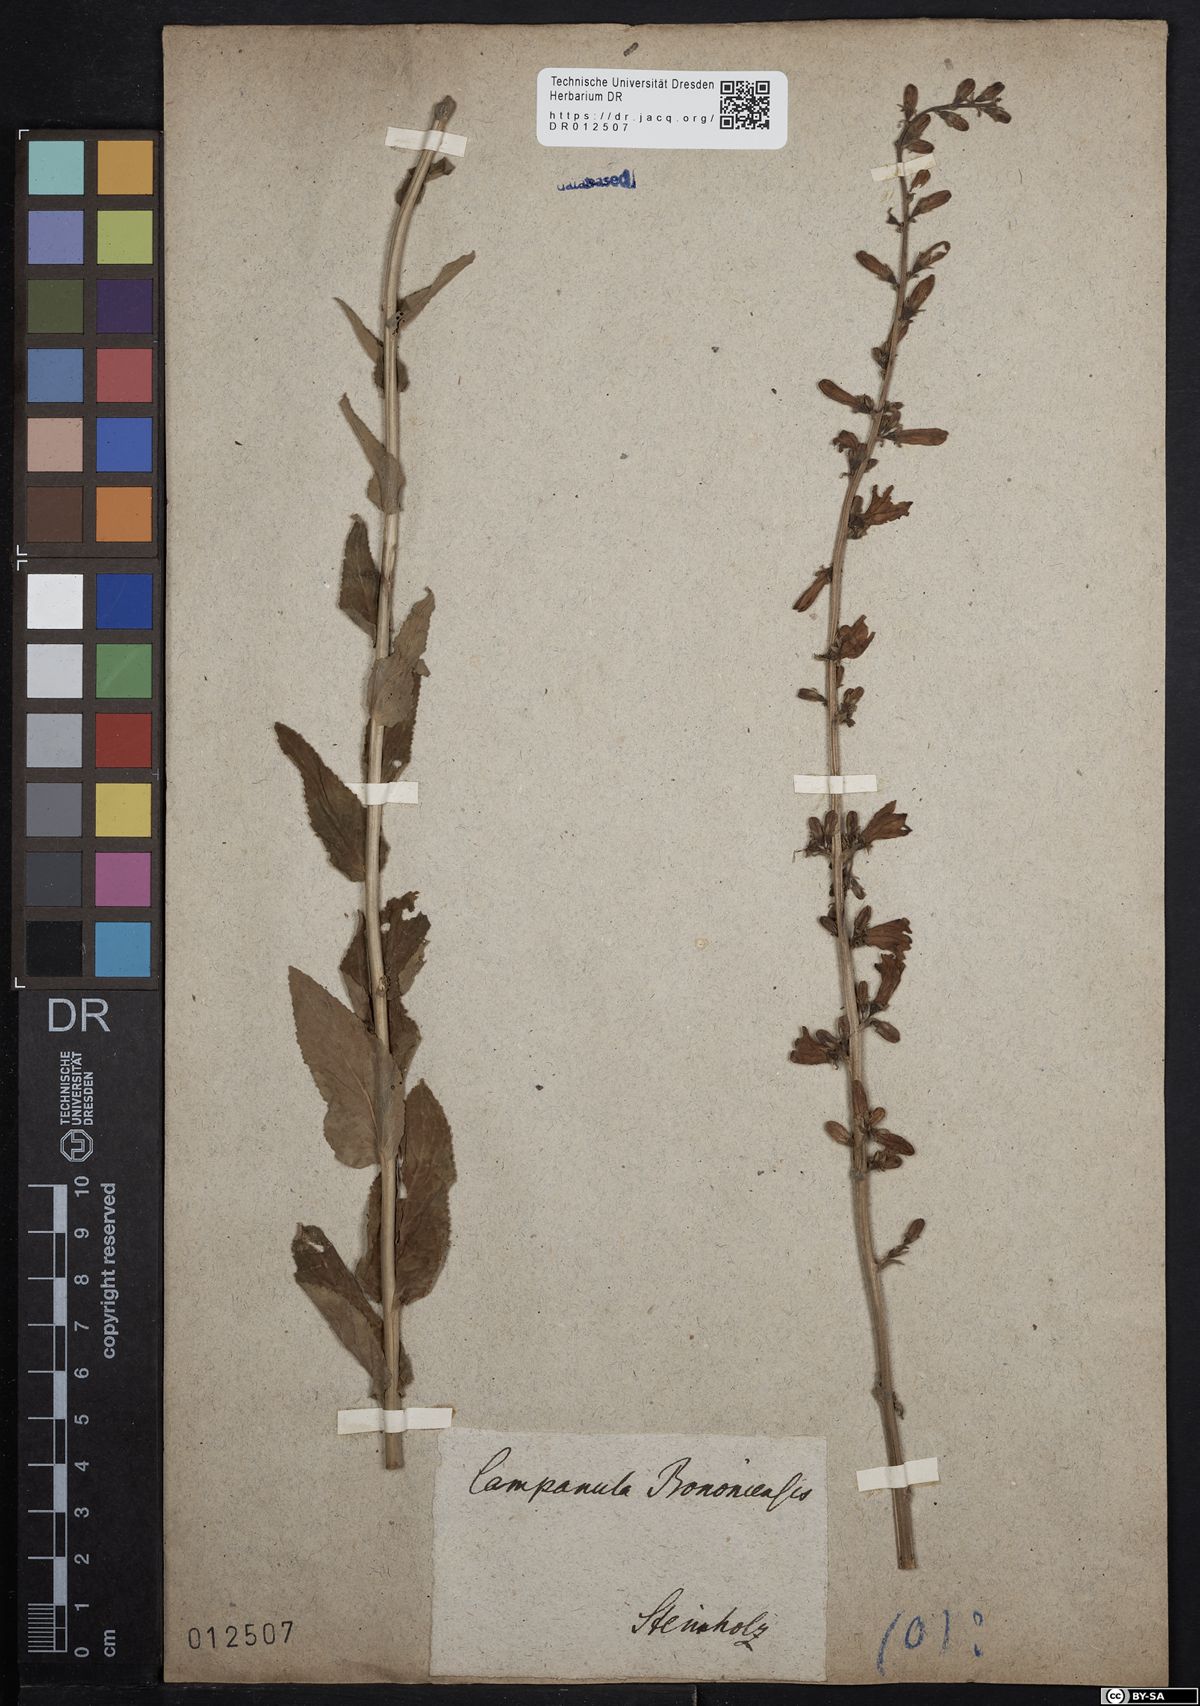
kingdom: Plantae
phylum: Tracheophyta
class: Magnoliopsida
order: Asterales
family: Campanulaceae
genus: Campanula
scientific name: Campanula bononiensis
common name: Pale bellflower
